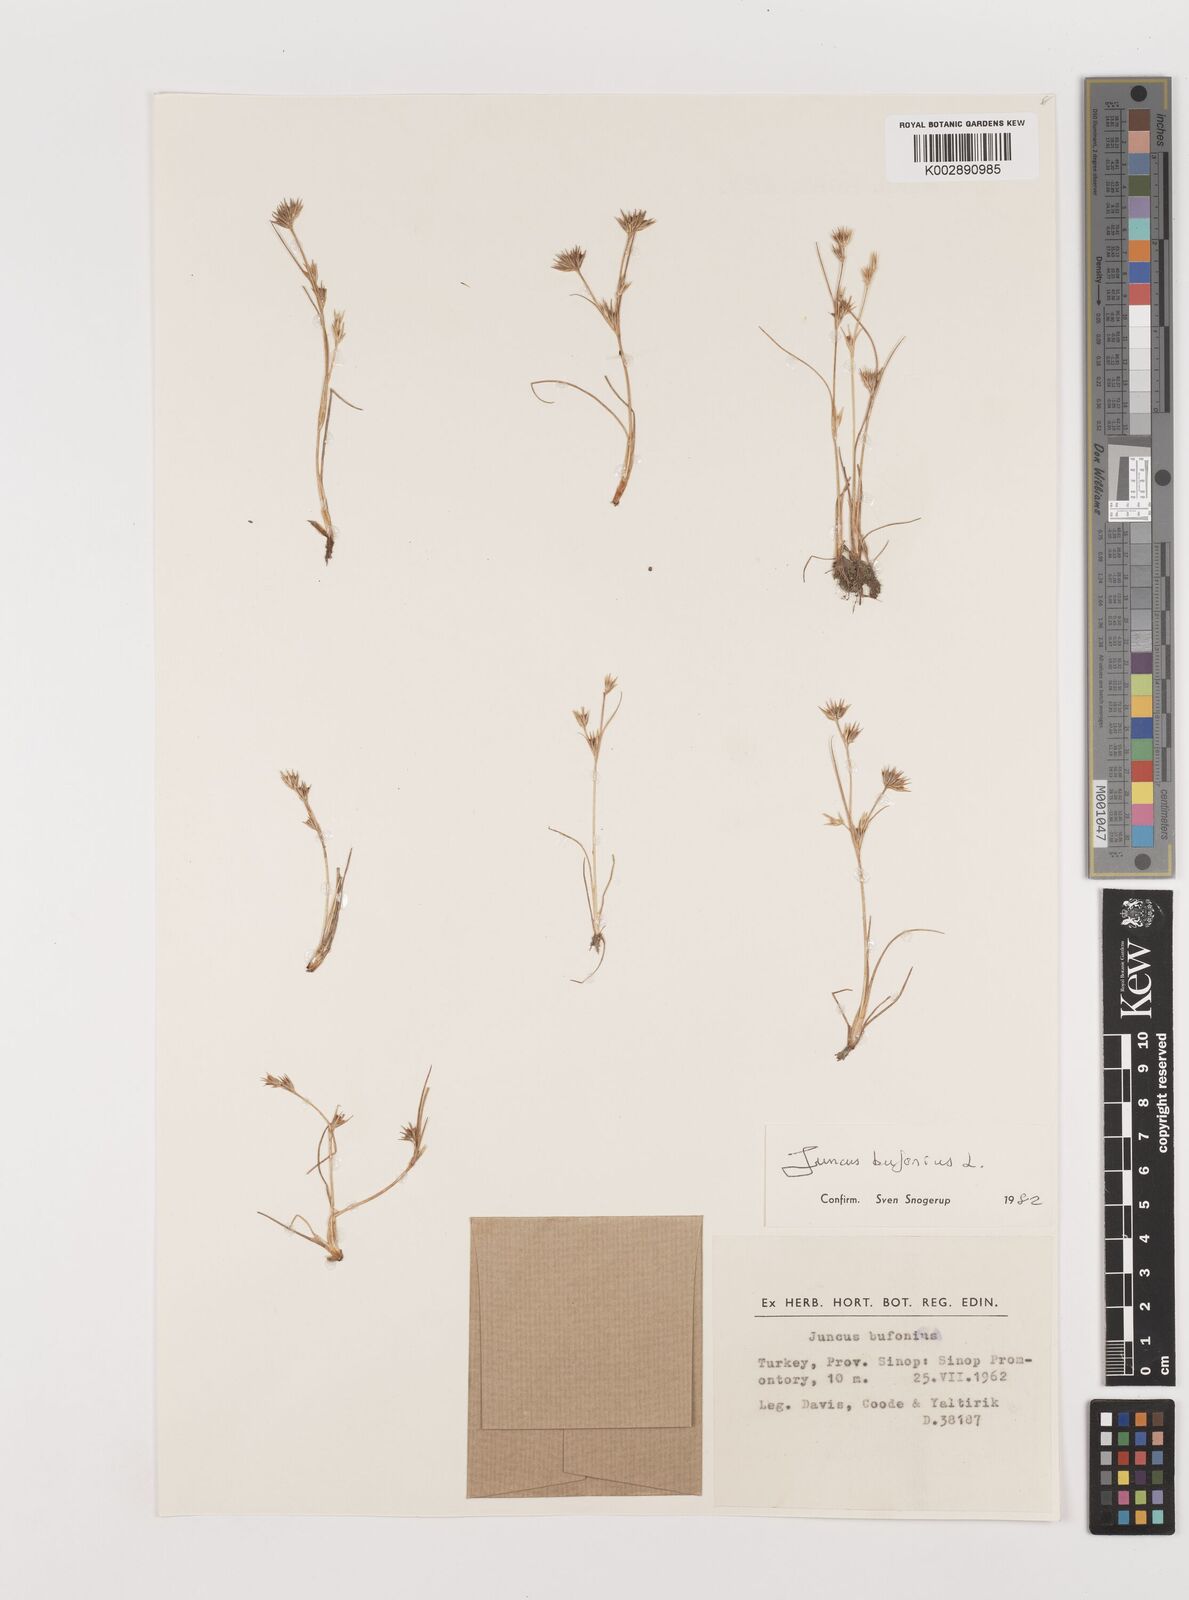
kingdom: Plantae
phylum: Tracheophyta
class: Liliopsida
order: Poales
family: Juncaceae
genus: Juncus
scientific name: Juncus bufonius
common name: Toad rush
